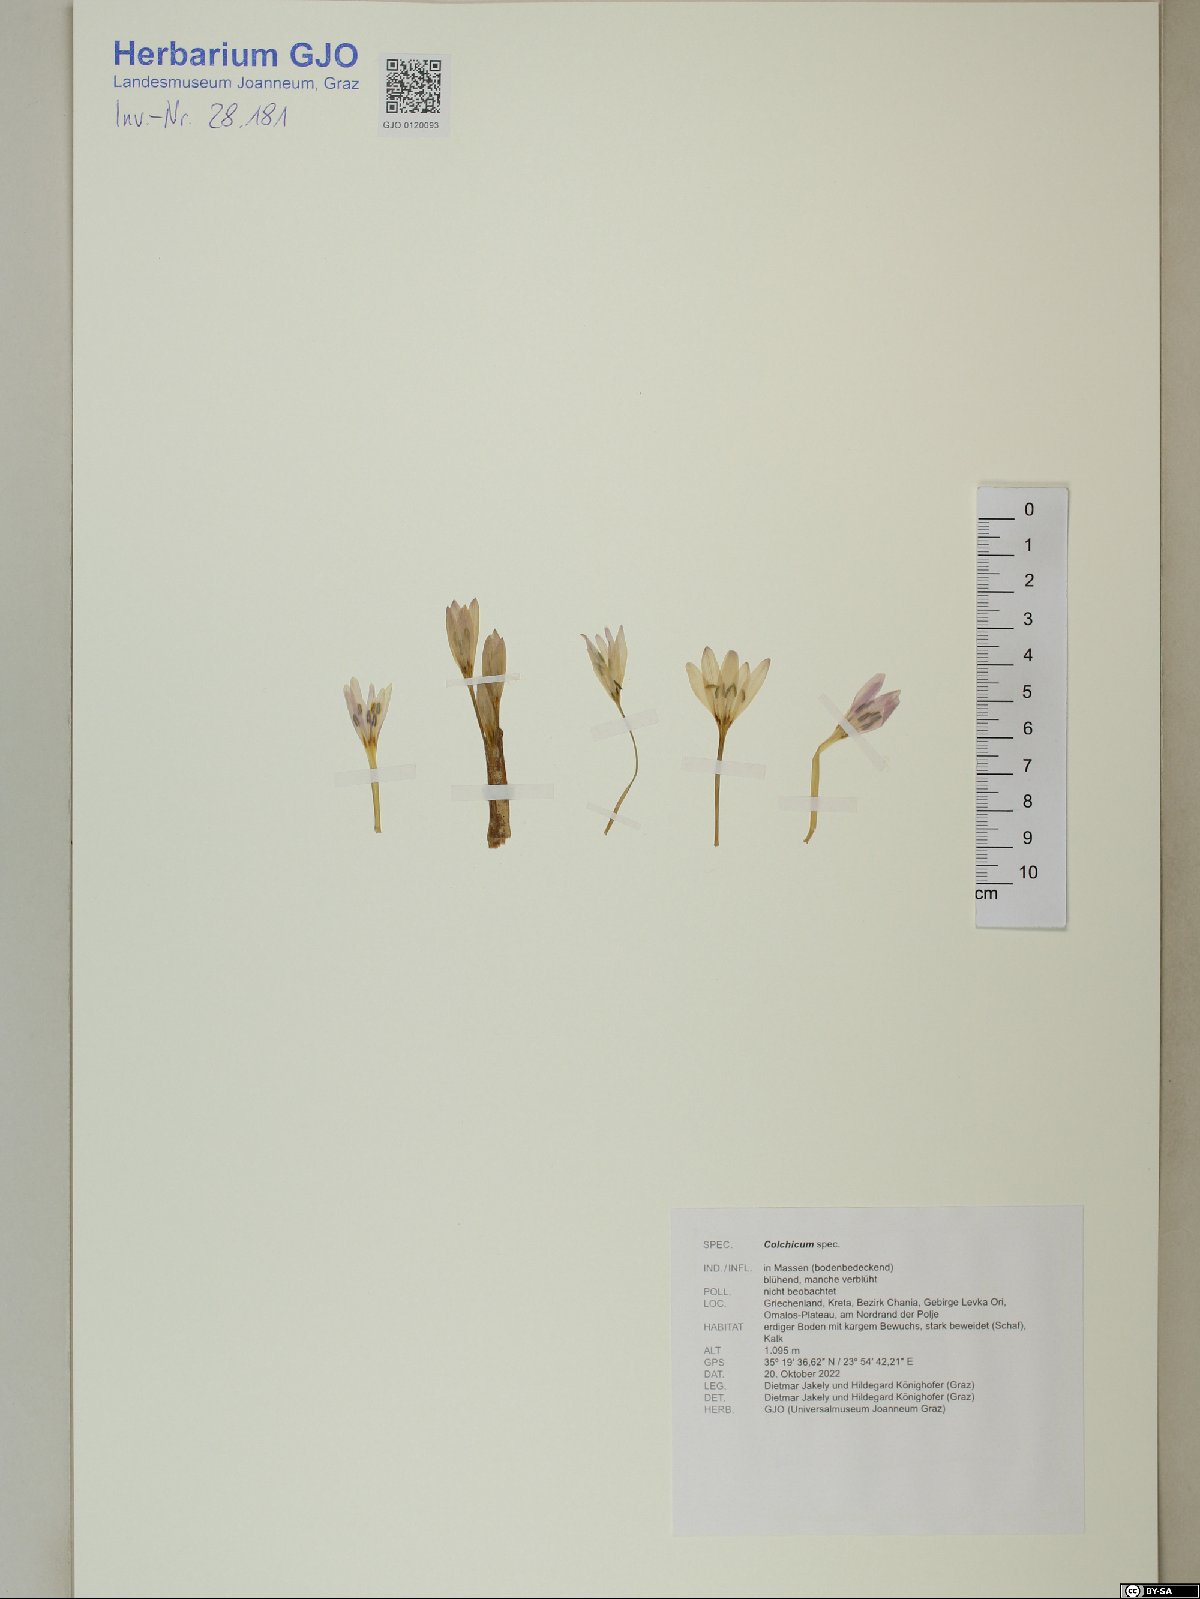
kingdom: Plantae
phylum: Tracheophyta
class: Liliopsida
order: Liliales
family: Colchicaceae
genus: Colchicum
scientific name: Colchicum
